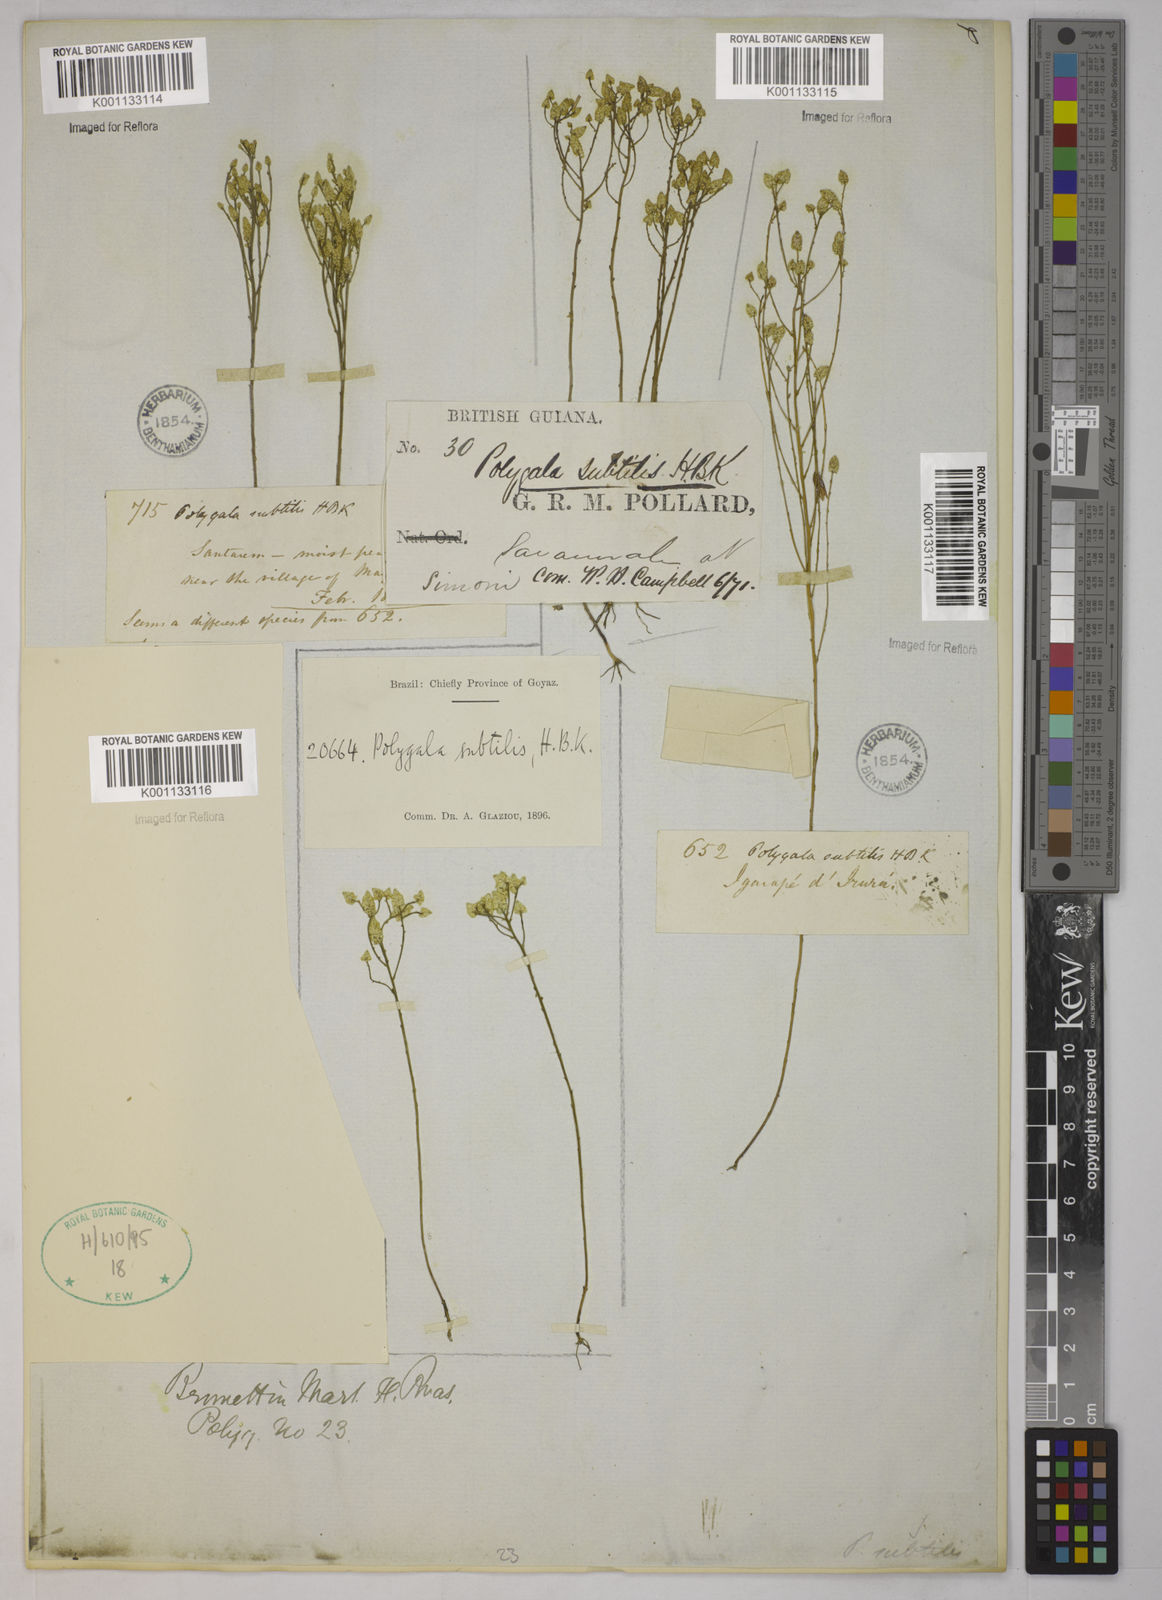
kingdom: Plantae
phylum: Tracheophyta
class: Magnoliopsida
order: Fabales
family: Polygalaceae
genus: Polygala
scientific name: Polygala subtilis
